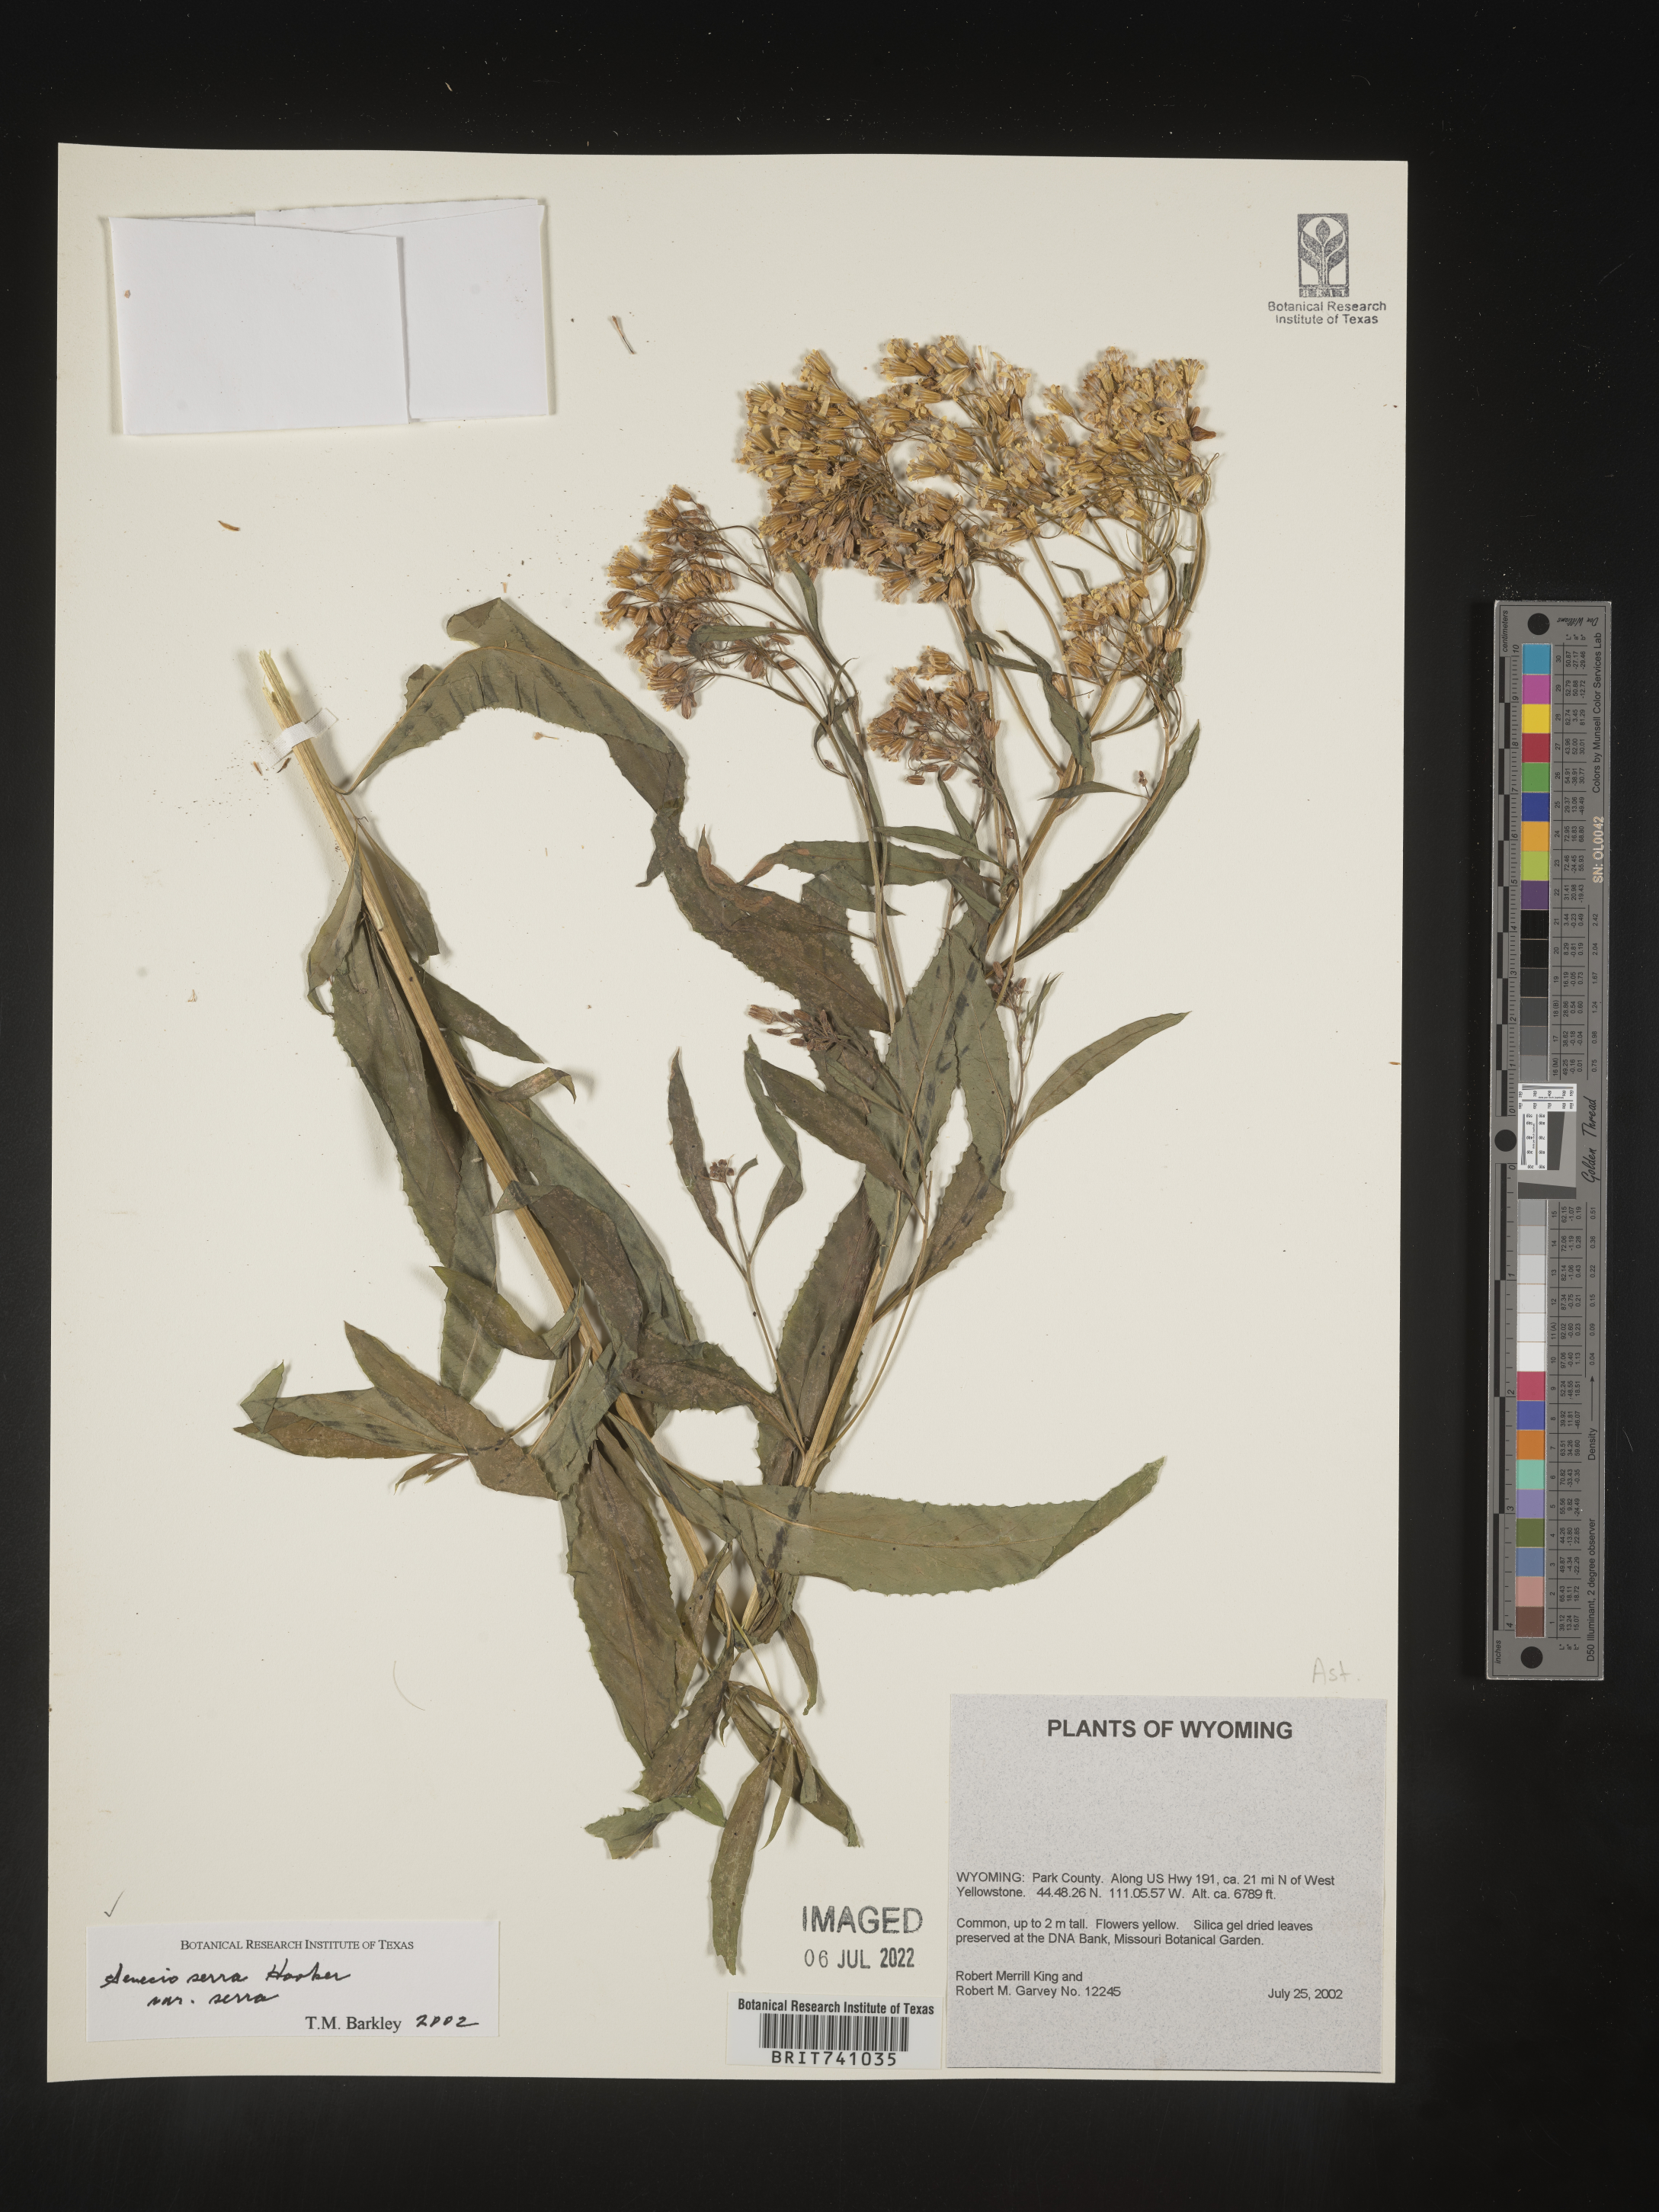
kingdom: Plantae
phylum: Tracheophyta
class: Magnoliopsida
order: Asterales
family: Asteraceae
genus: Senecio
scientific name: Senecio serra
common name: Tall ragwort
